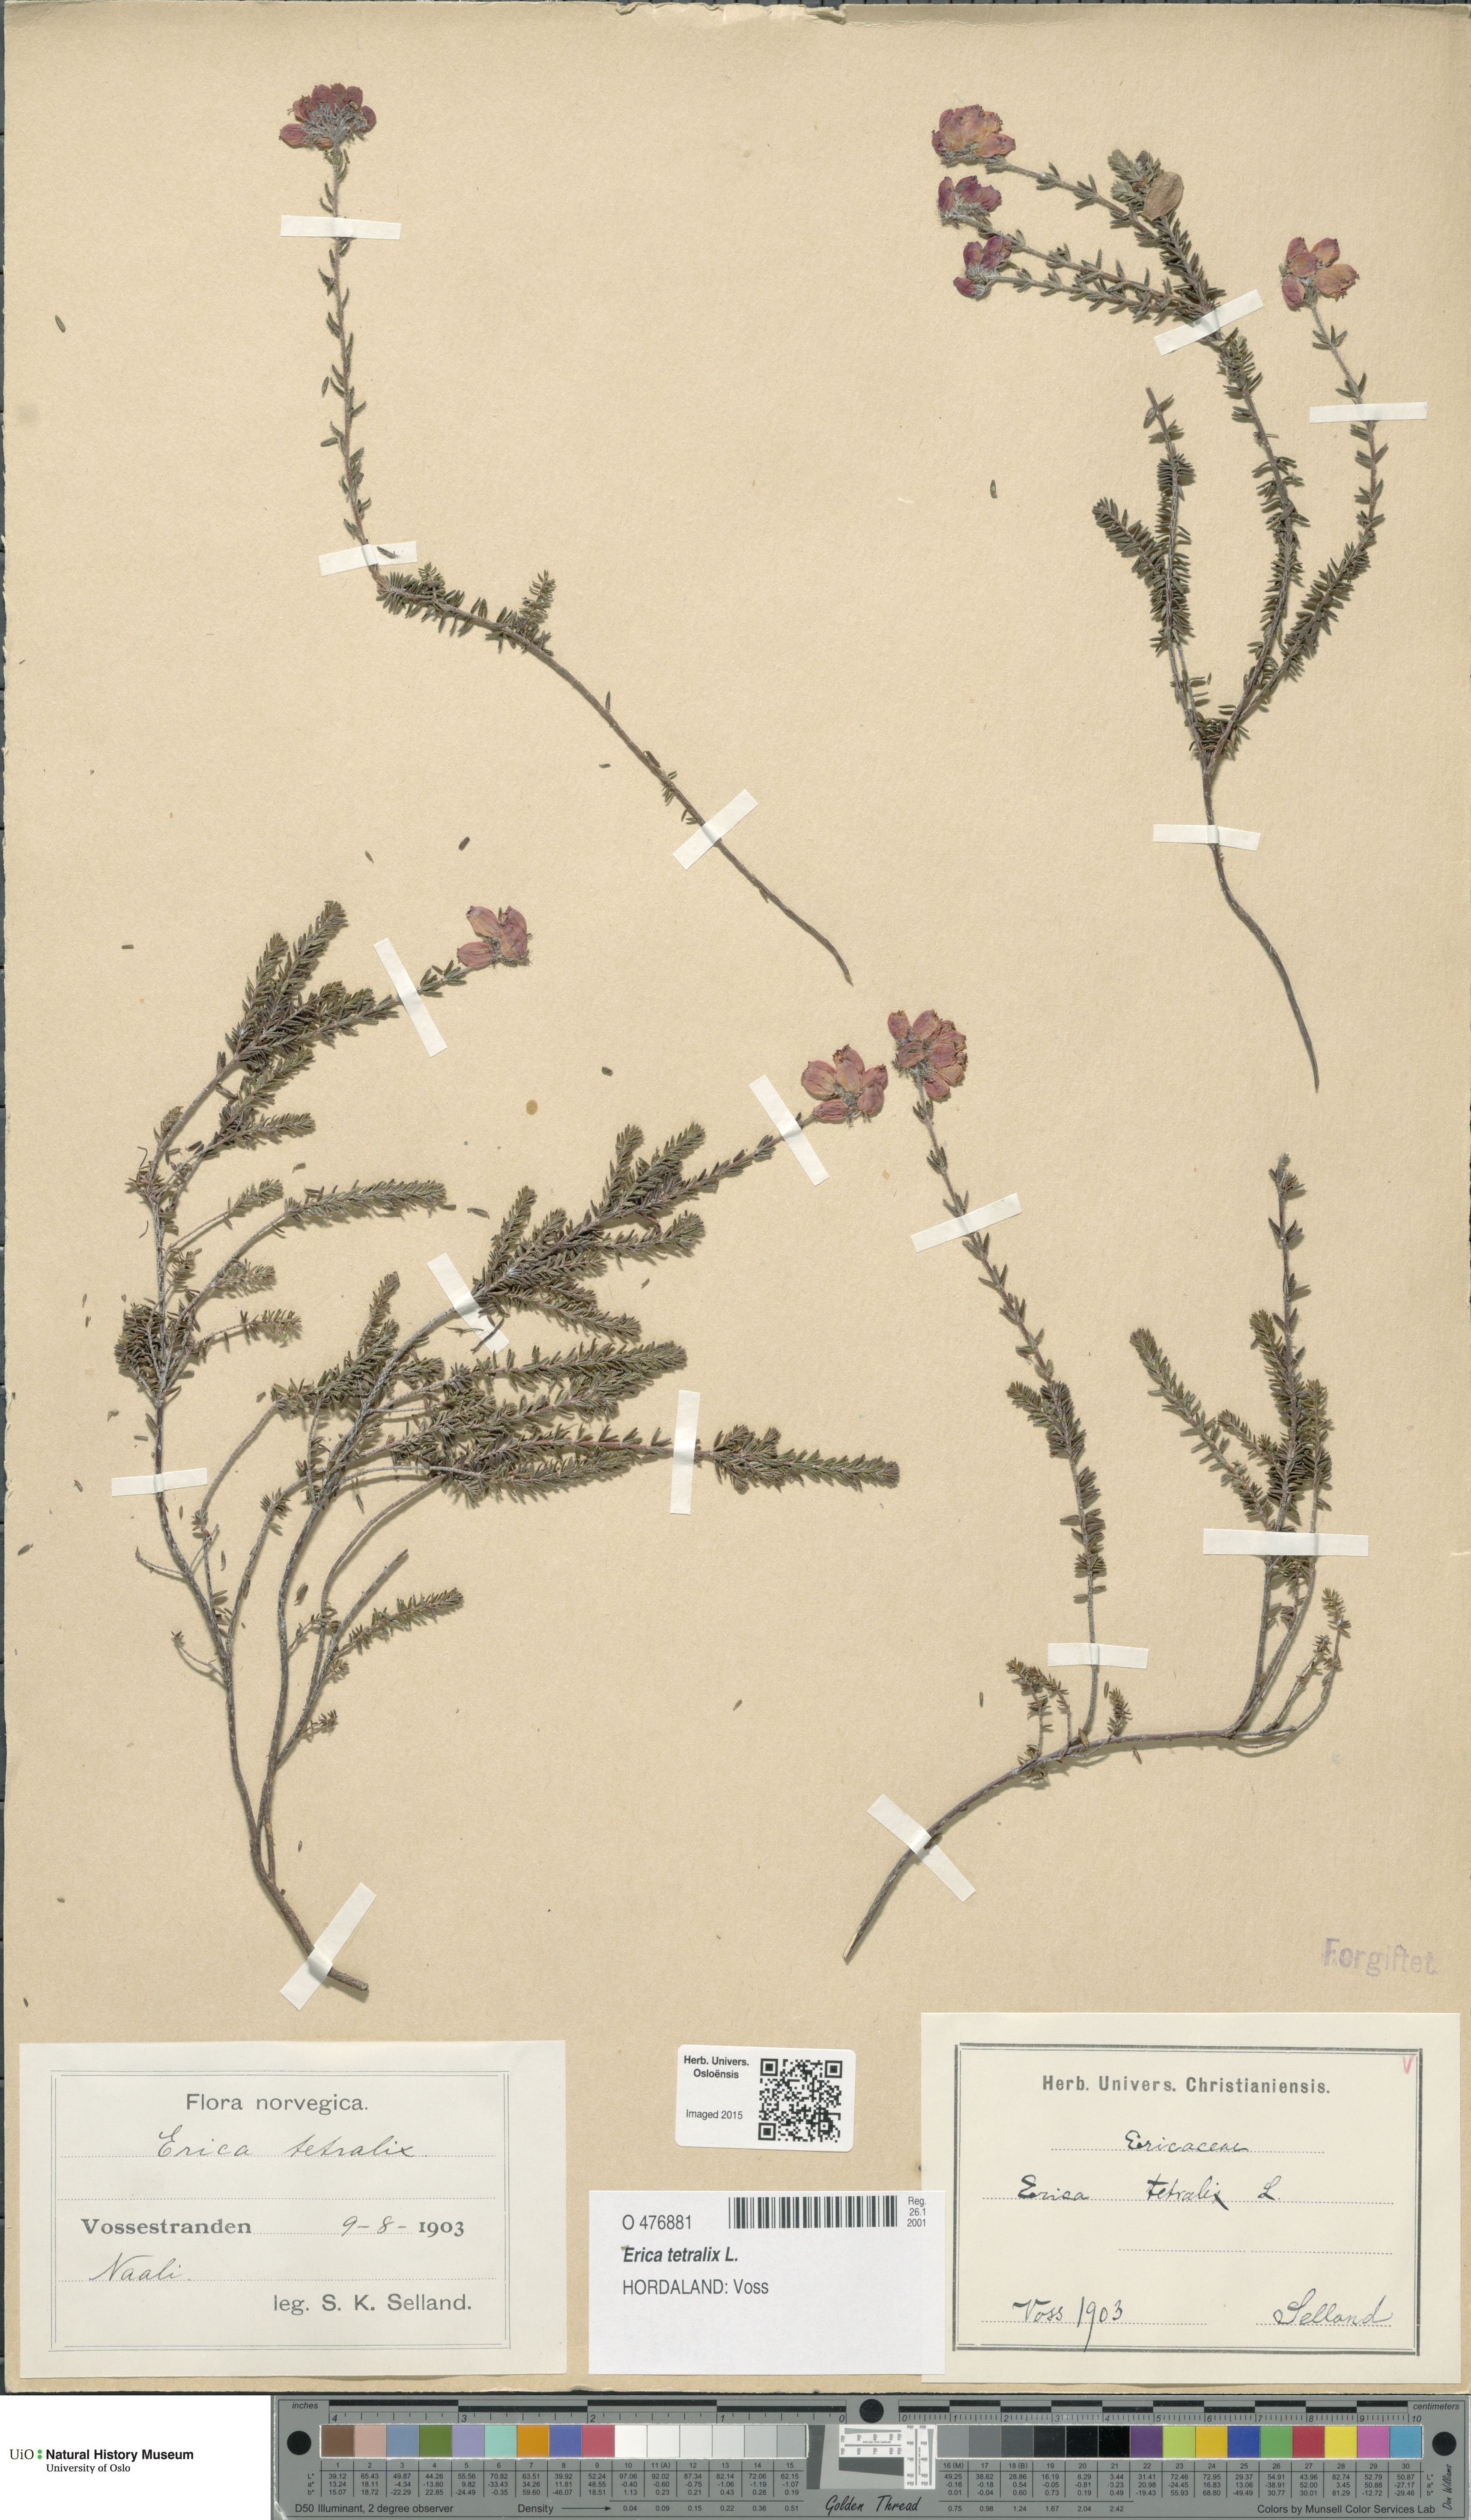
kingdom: Plantae
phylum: Tracheophyta
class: Magnoliopsida
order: Ericales
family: Ericaceae
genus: Erica
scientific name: Erica tetralix
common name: Cross-leaved heath
